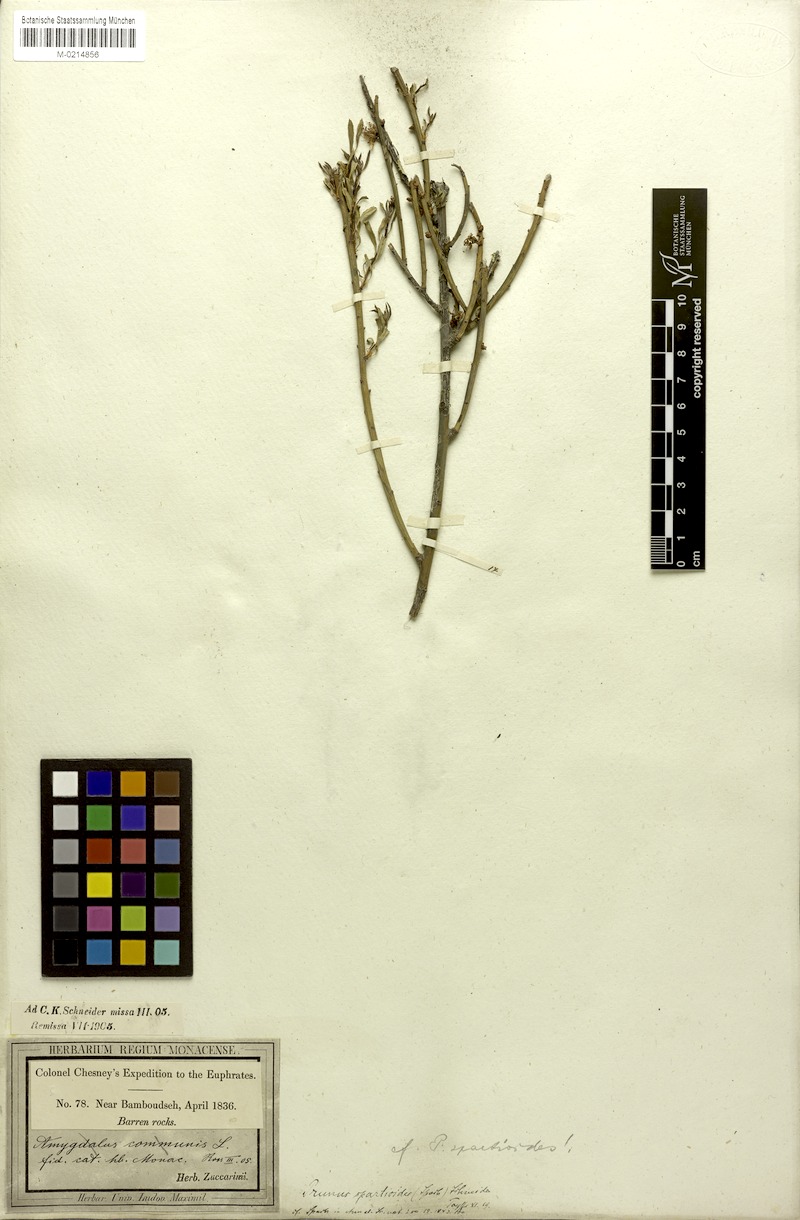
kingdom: Plantae
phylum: Tracheophyta
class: Magnoliopsida
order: Rosales
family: Rosaceae
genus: Prunus
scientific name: Prunus arabica
